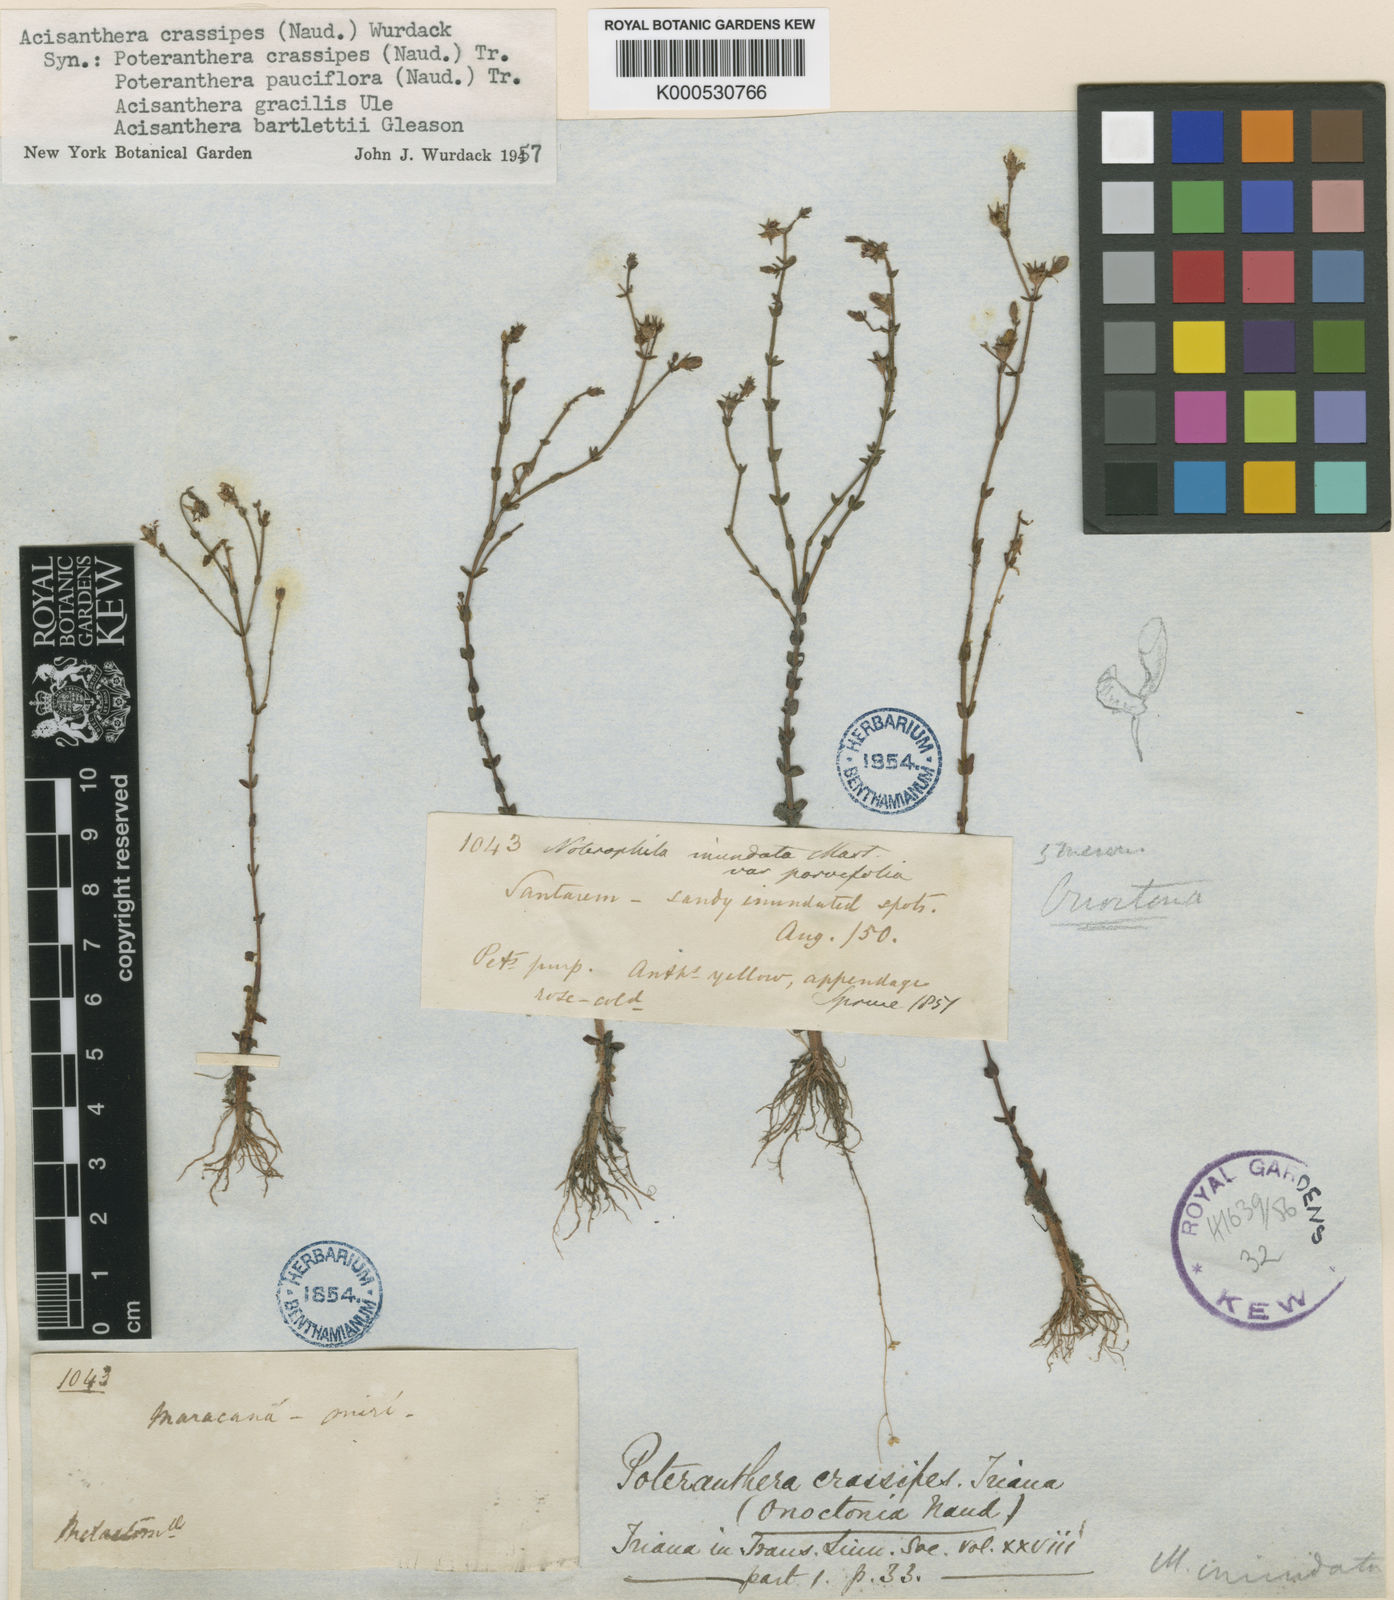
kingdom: Plantae
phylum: Tracheophyta
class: Magnoliopsida
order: Myrtales
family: Melastomataceae
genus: Noterophila
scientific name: Noterophila crassipes
